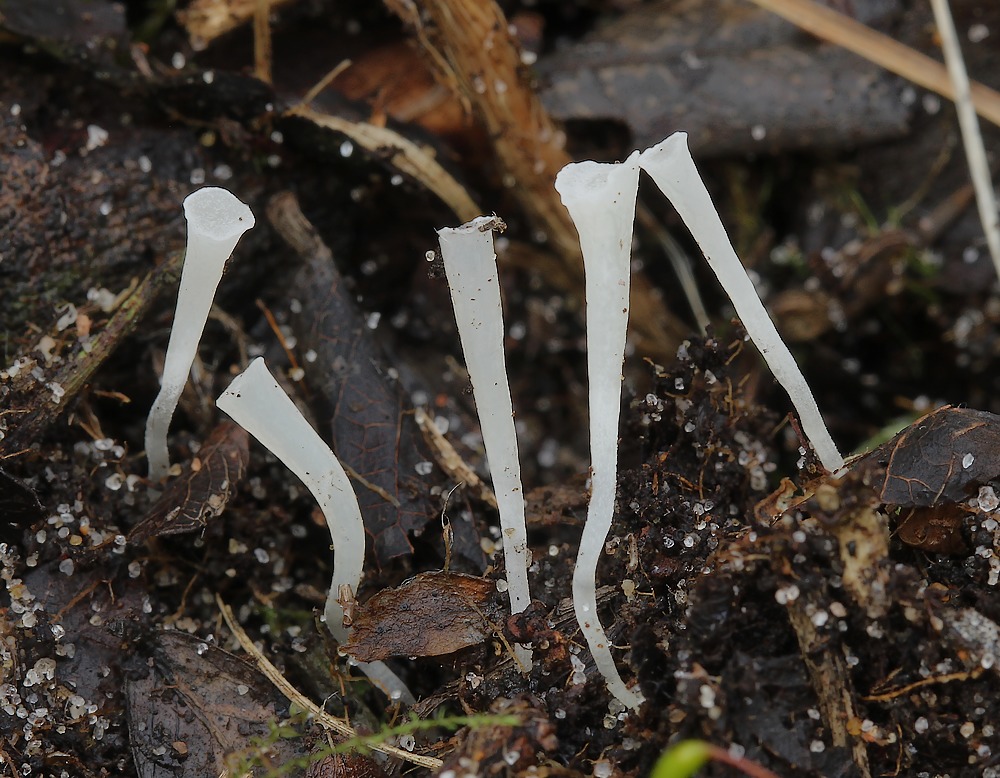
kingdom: Fungi
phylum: Basidiomycota
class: Agaricomycetes
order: Agaricales
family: Clavariaceae
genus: Clavicorona
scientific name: Clavicorona taxophila
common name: trompetkølle
